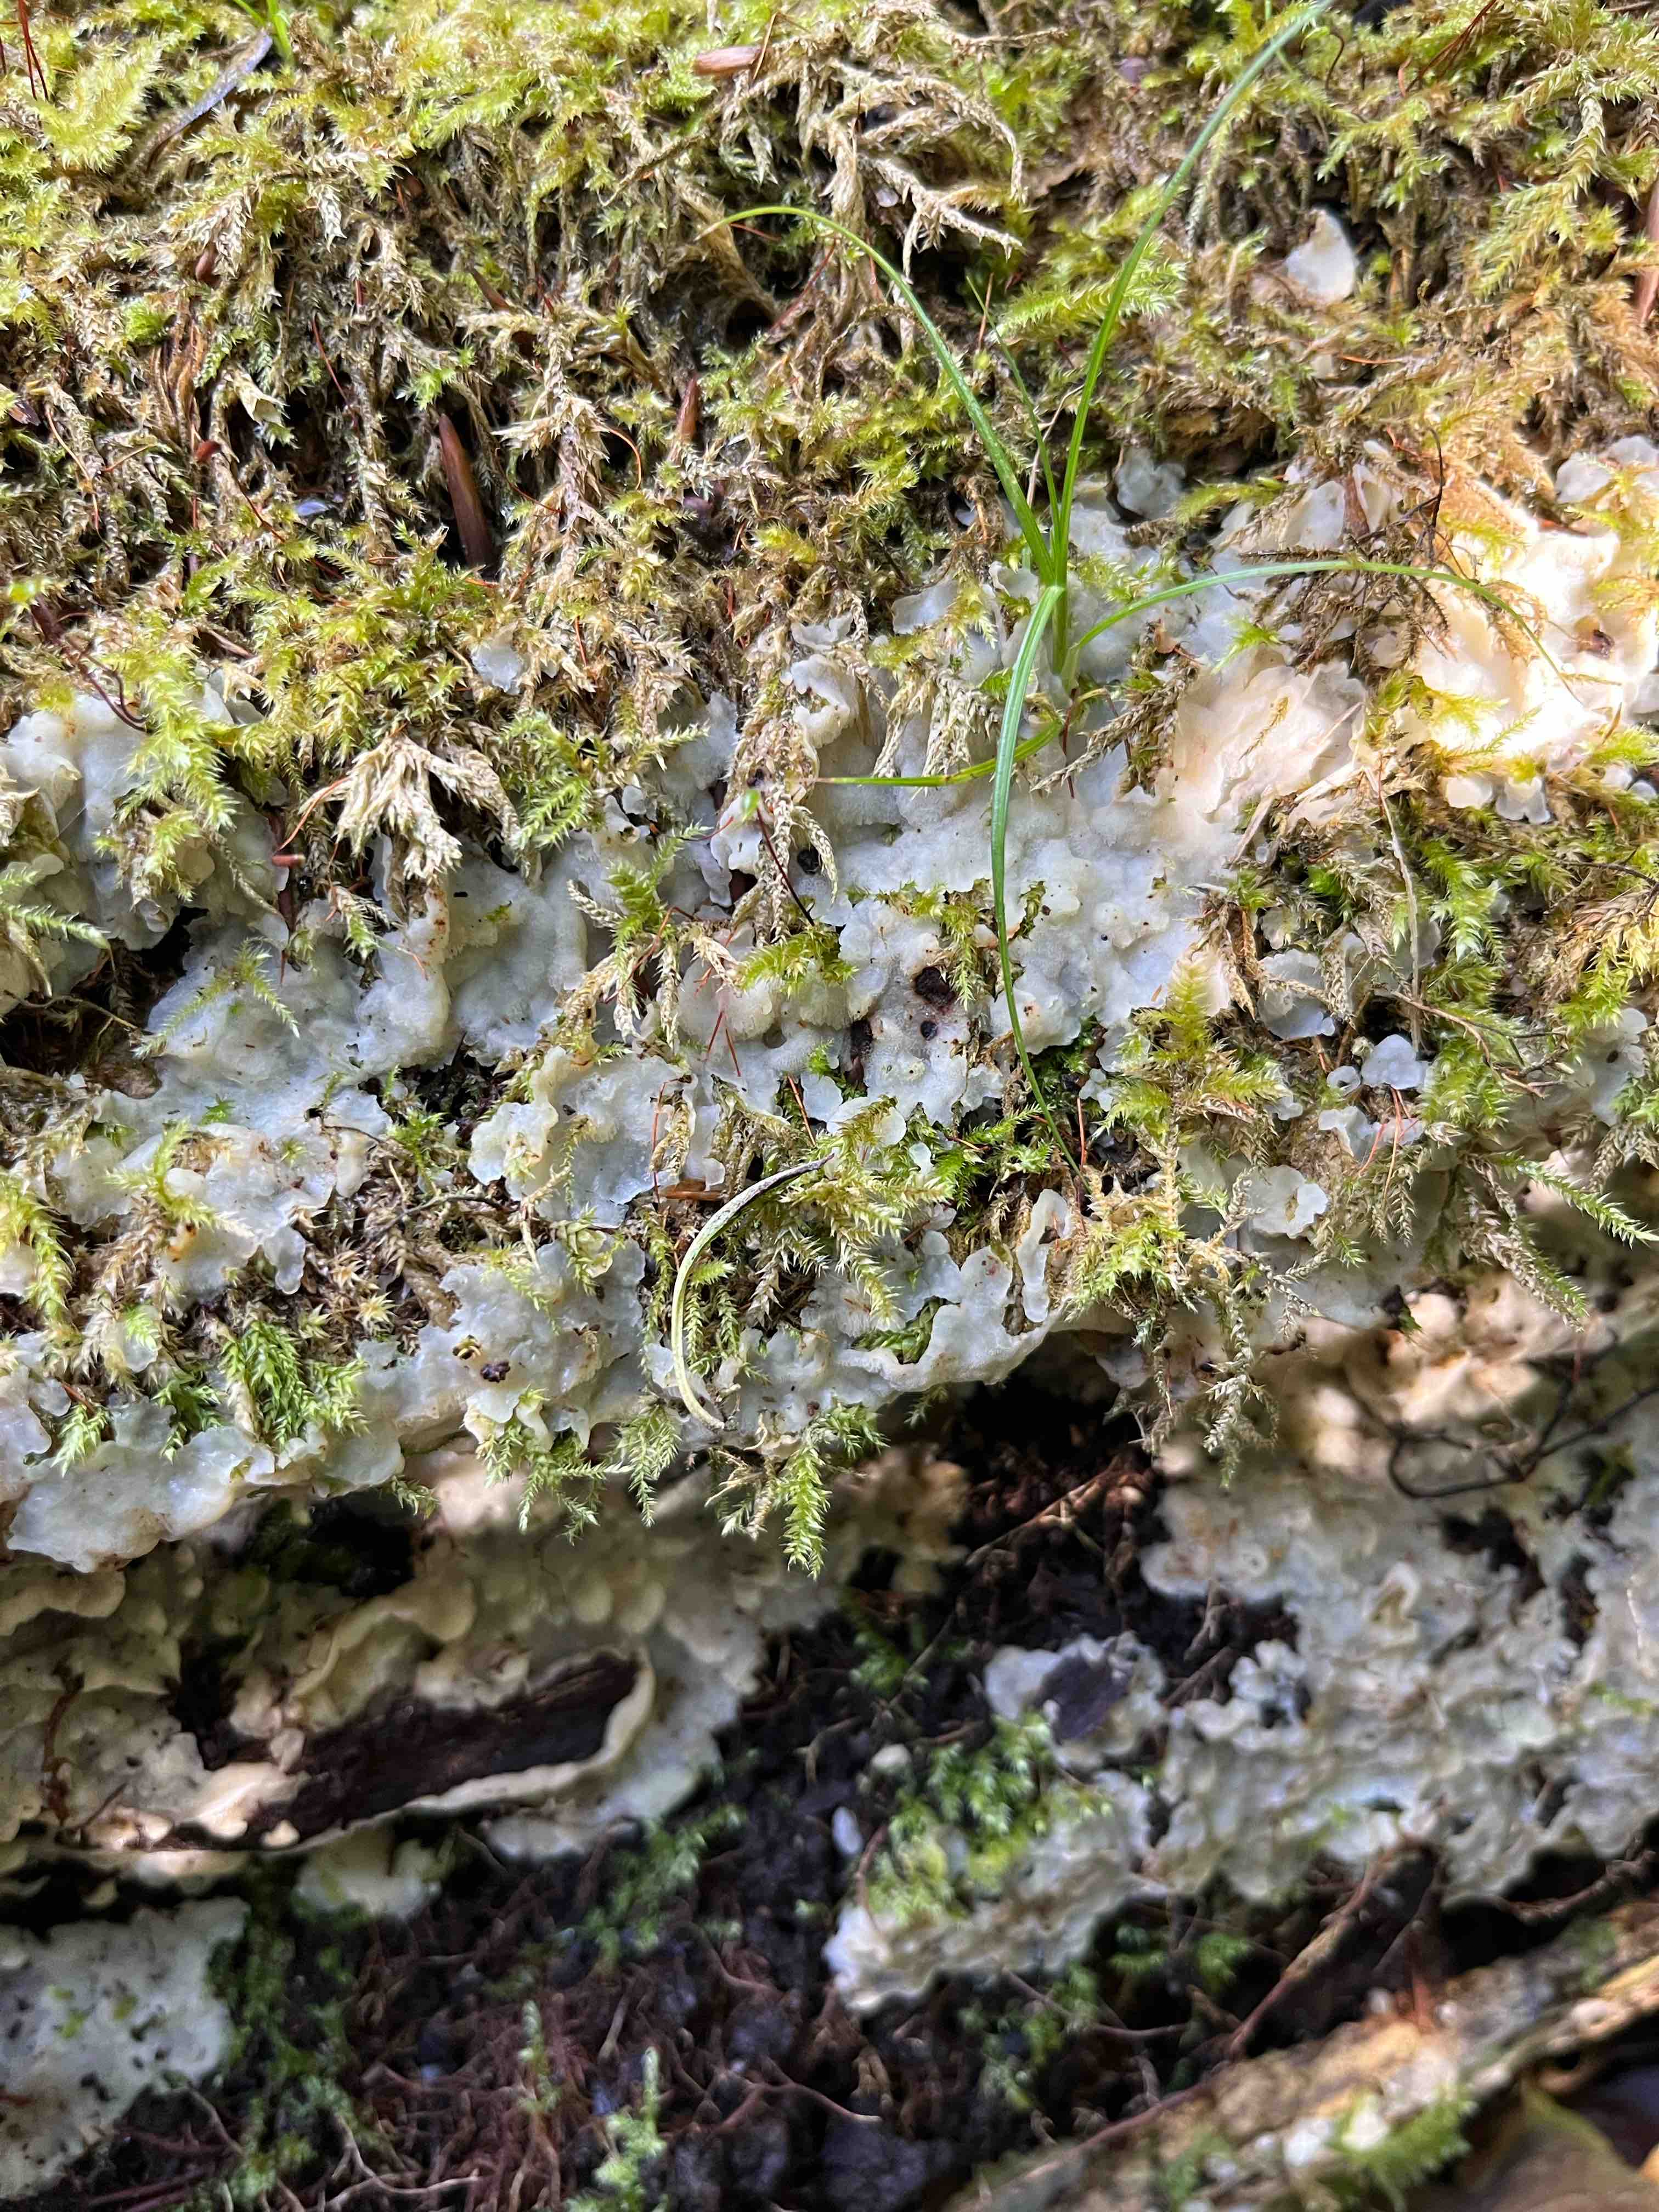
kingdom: Fungi
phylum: Basidiomycota
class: Agaricomycetes
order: Polyporales
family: Meruliaceae
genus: Physisporinus
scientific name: Physisporinus
